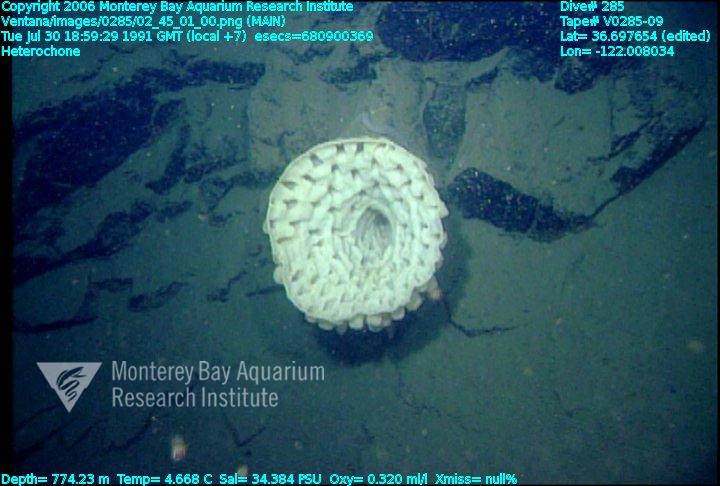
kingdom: Animalia
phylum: Porifera
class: Hexactinellida
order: Sceptrulophora
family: Aphrocallistidae
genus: Heterochone
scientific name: Heterochone
